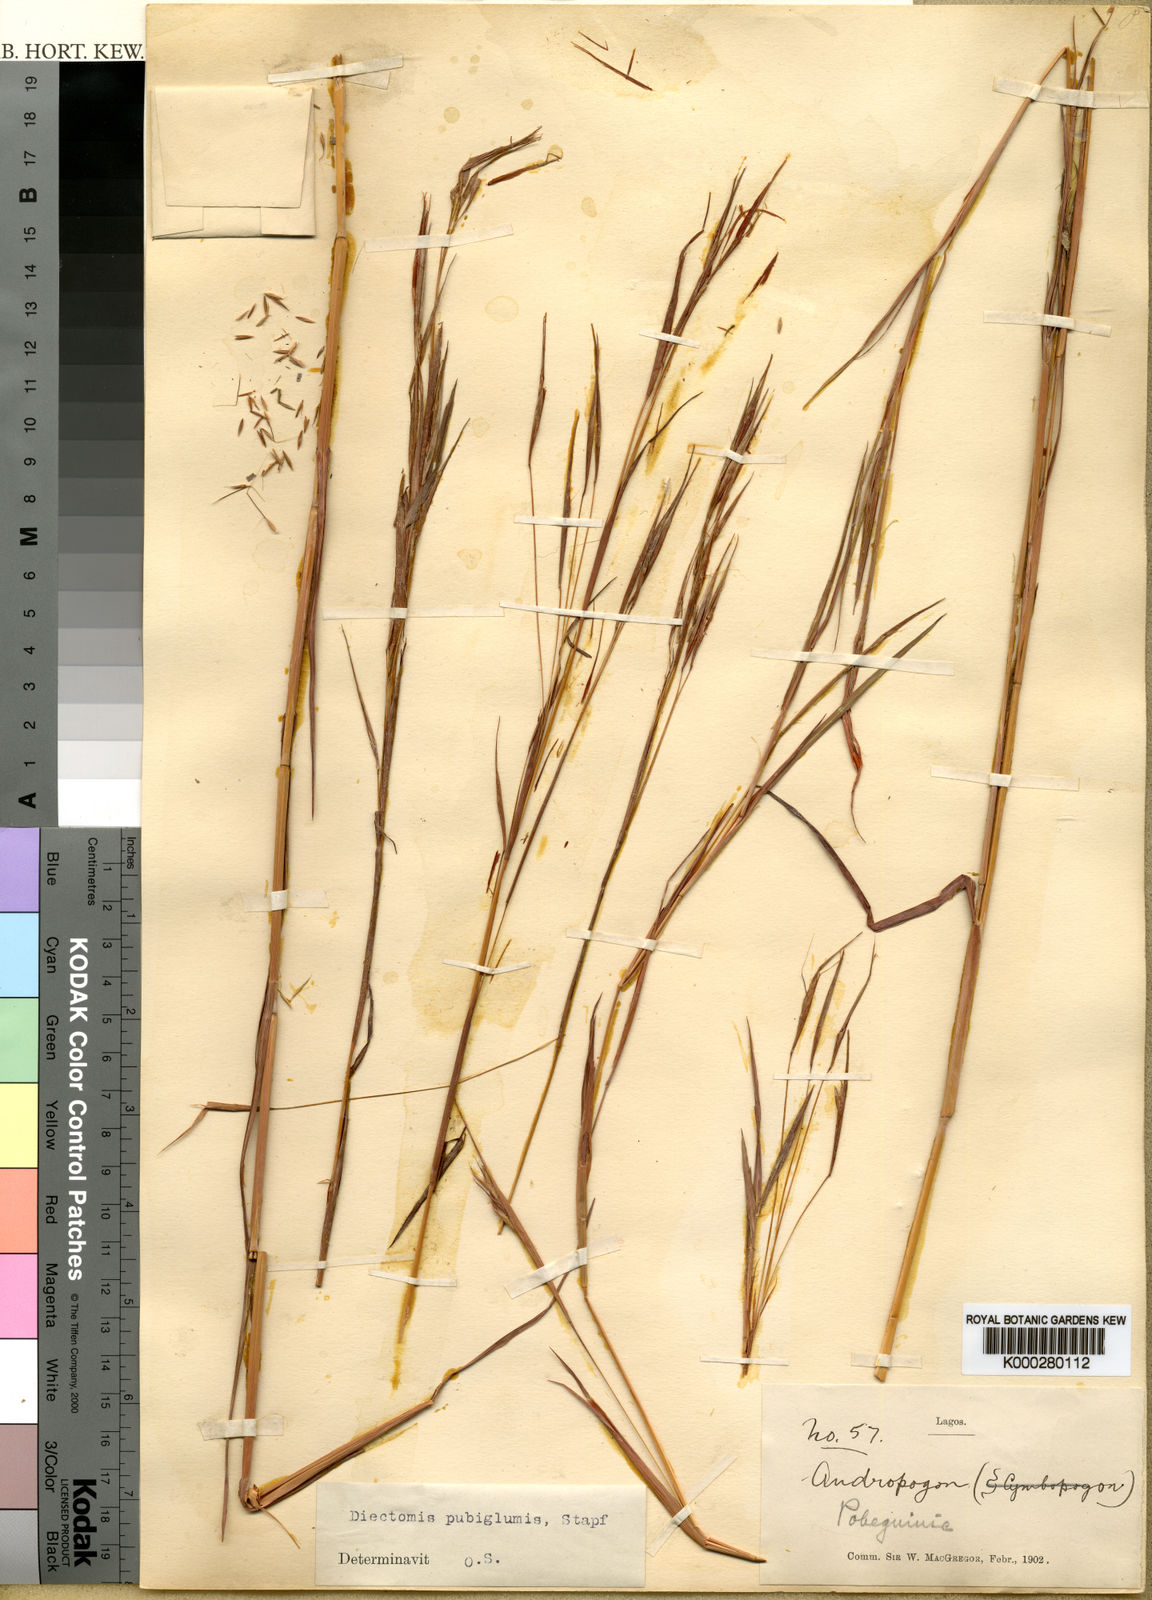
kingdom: Plantae
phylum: Tracheophyta
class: Liliopsida
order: Poales
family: Poaceae
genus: Anadelphia
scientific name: Anadelphia leptocoma
